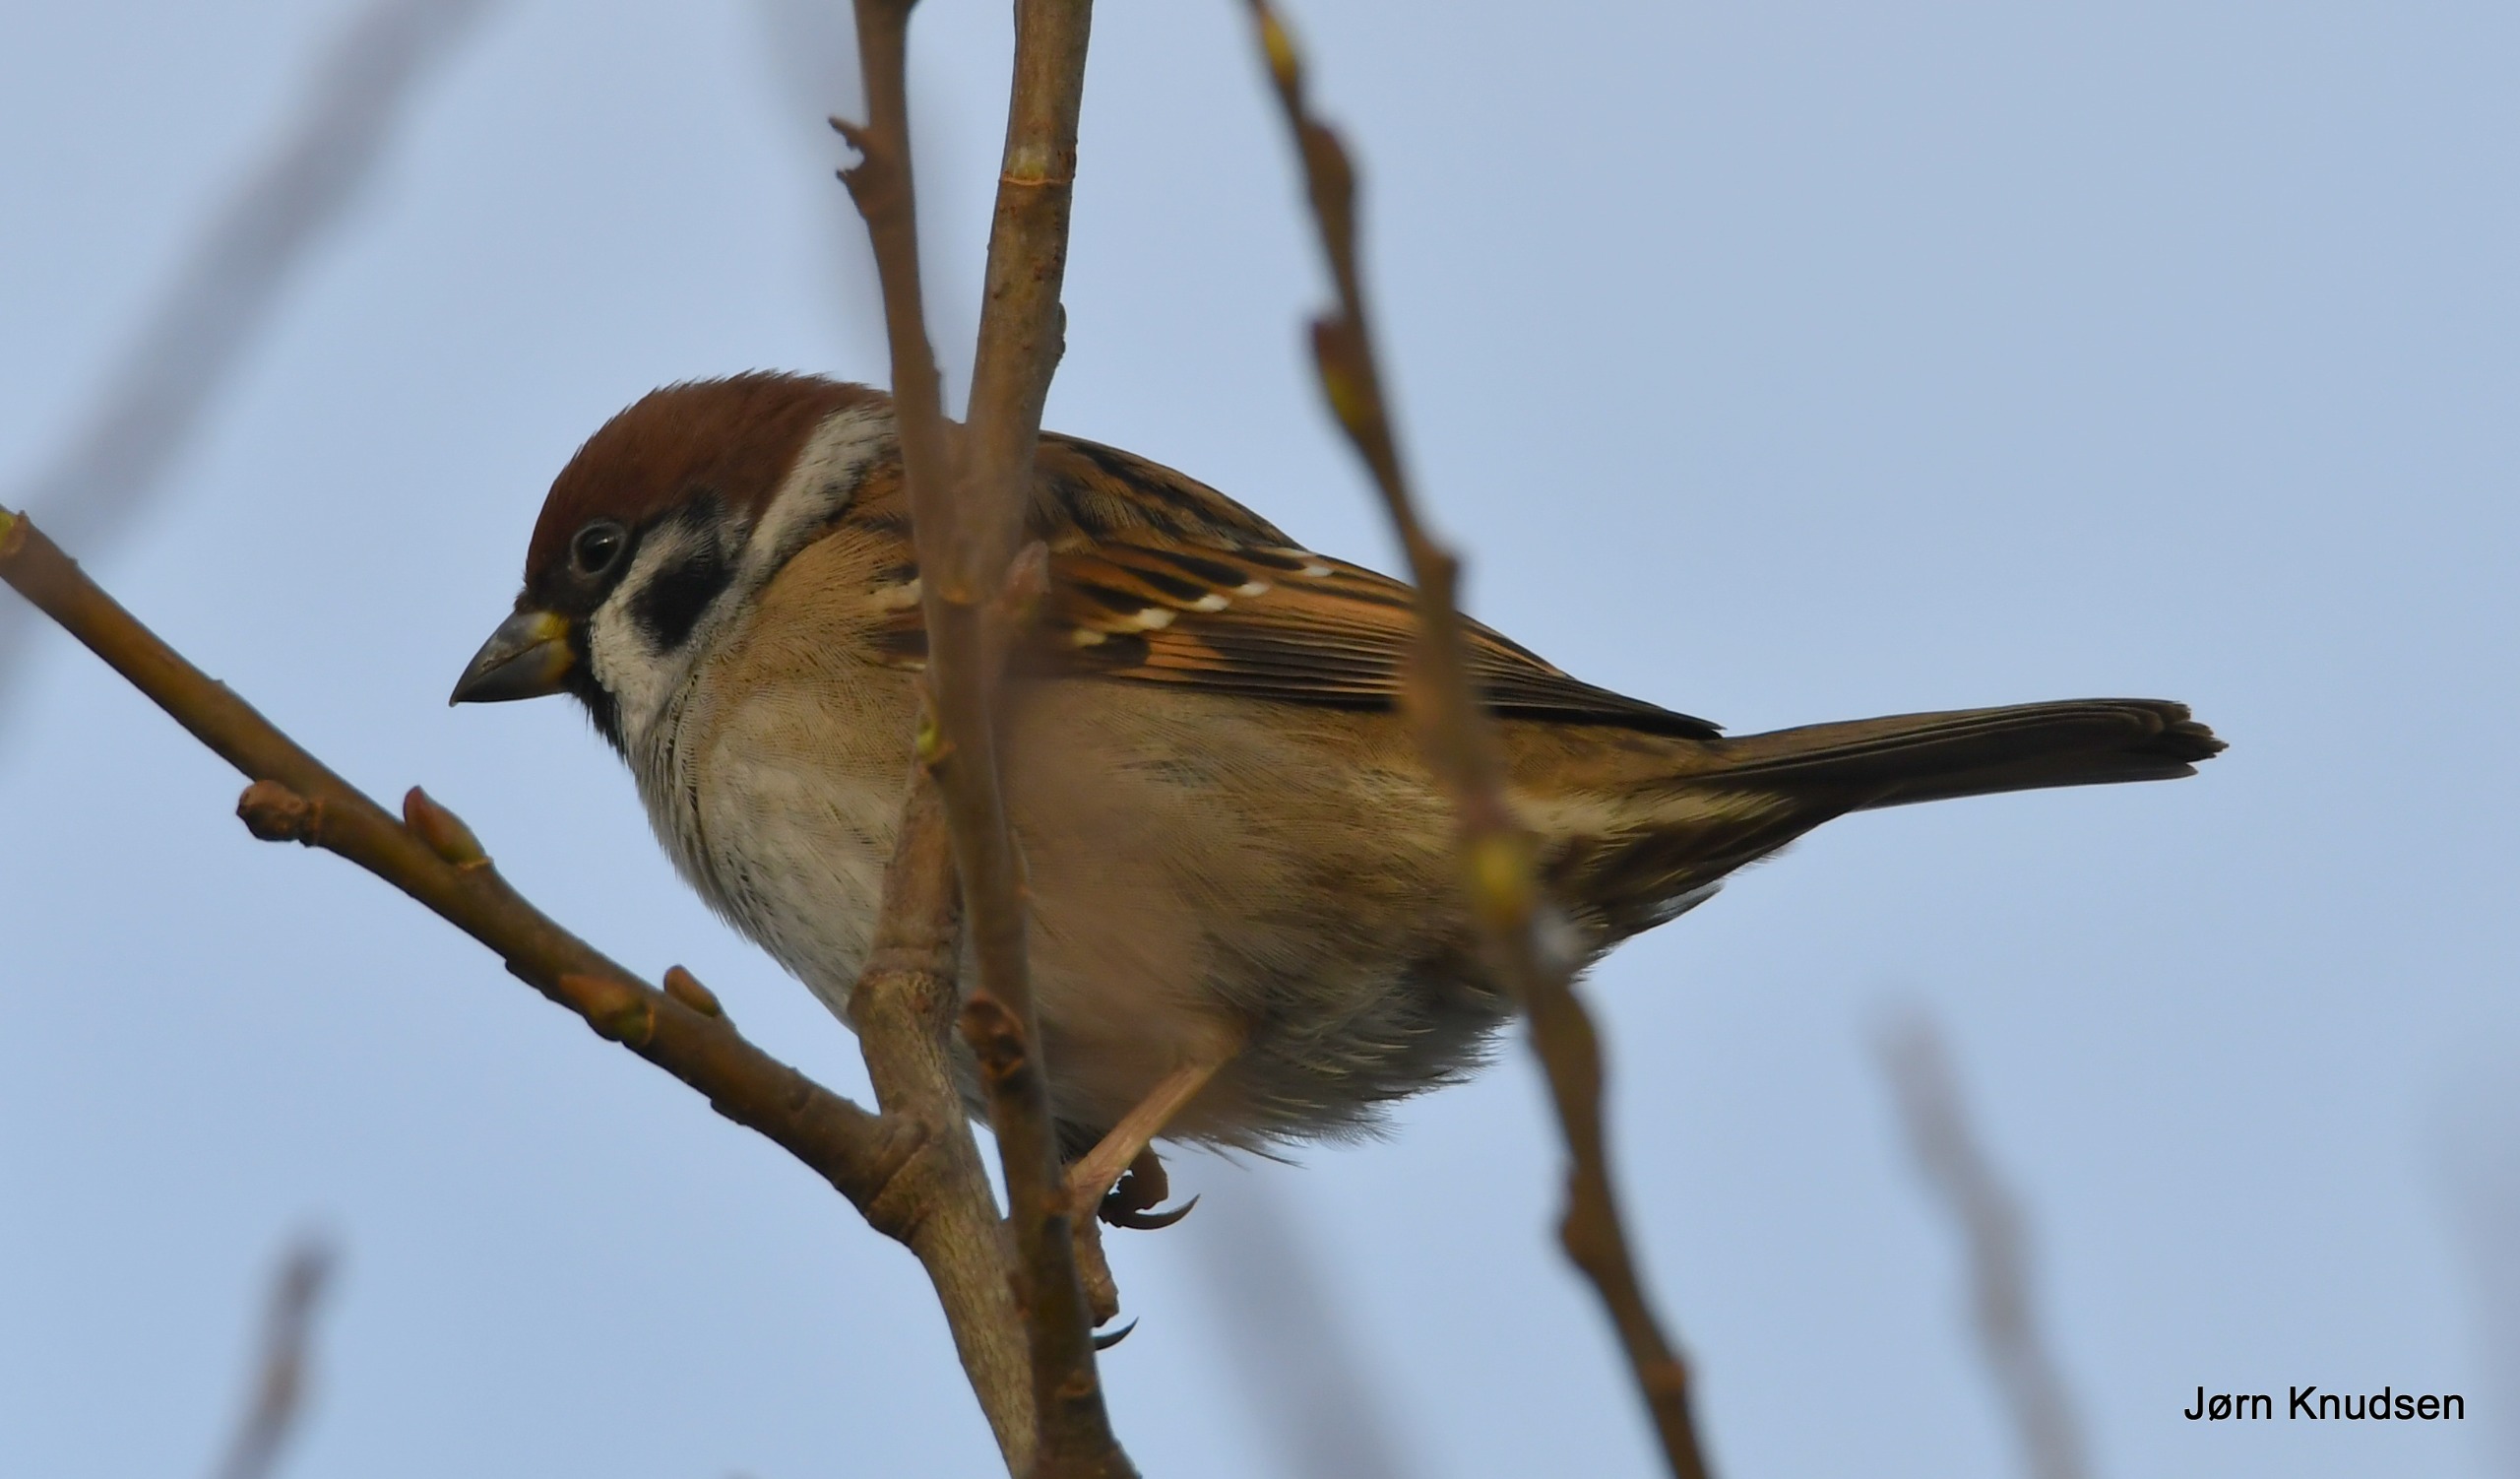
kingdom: Animalia
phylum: Chordata
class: Aves
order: Passeriformes
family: Passeridae
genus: Passer
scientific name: Passer montanus
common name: Skovspurv
